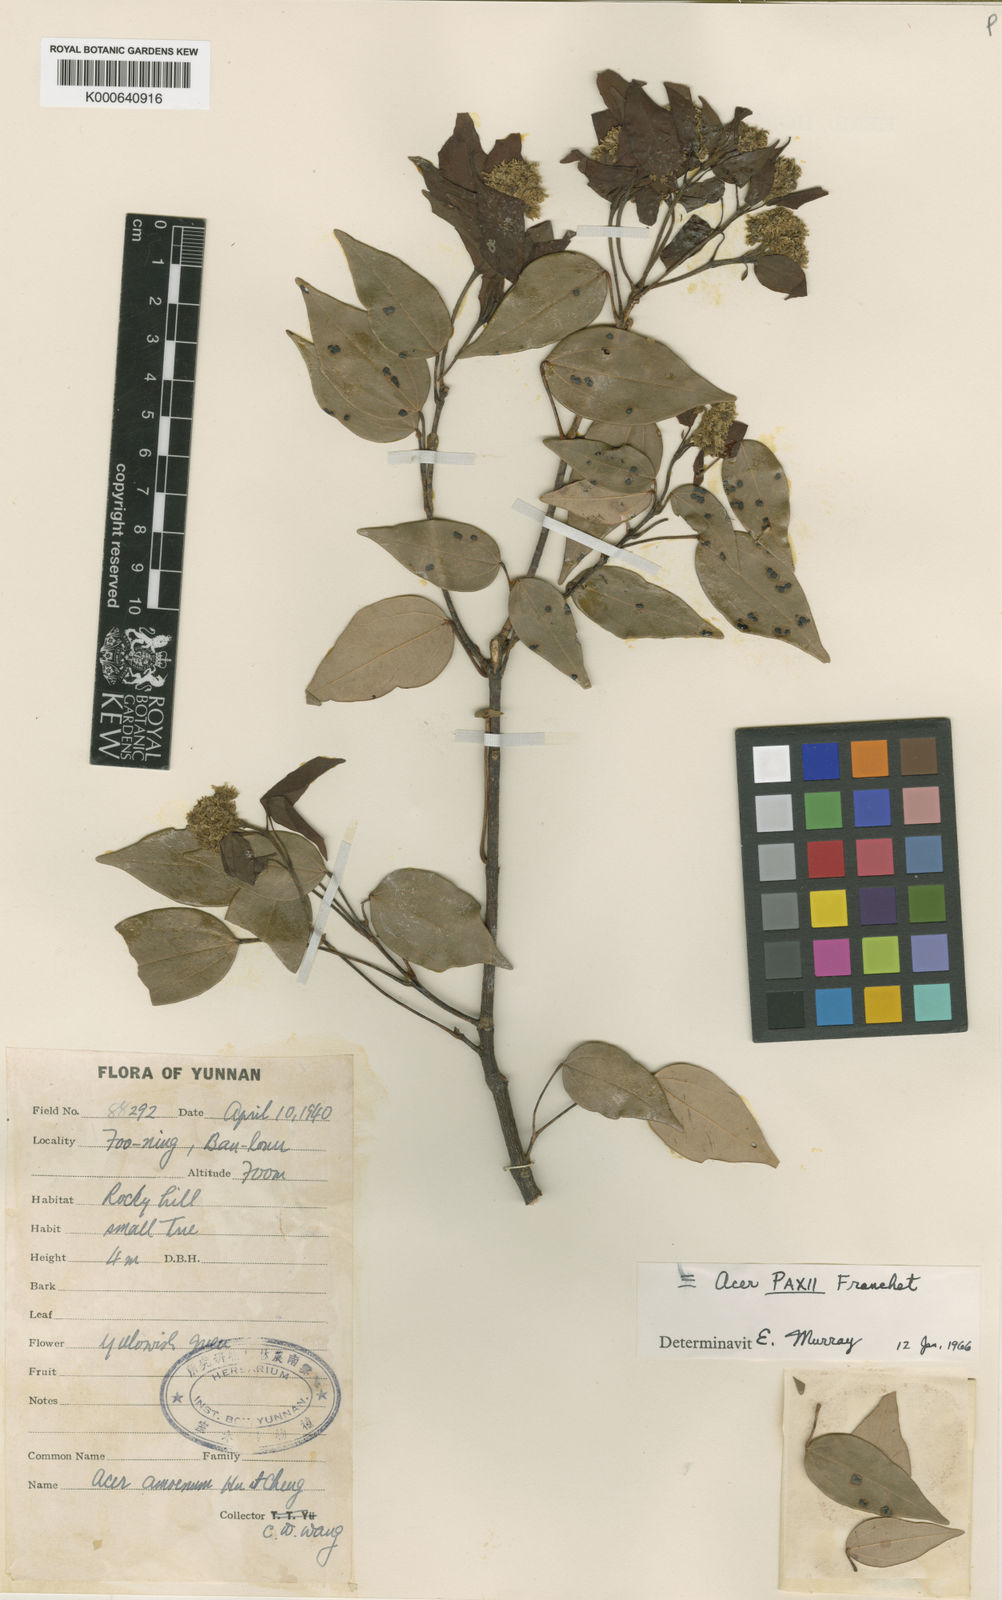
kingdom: Plantae
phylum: Tracheophyta
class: Magnoliopsida
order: Sapindales
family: Sapindaceae
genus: Acer
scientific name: Acer paxii
